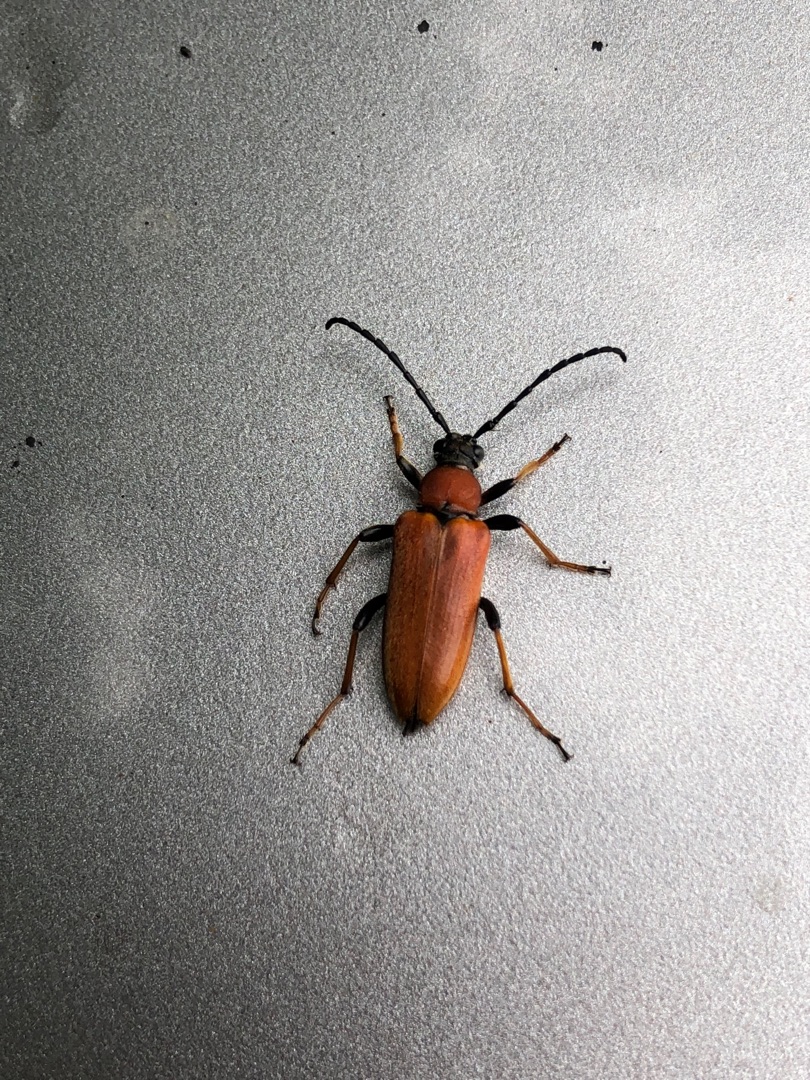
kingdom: Animalia
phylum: Arthropoda
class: Insecta
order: Coleoptera
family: Cerambycidae
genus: Stictoleptura
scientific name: Stictoleptura rubra
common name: Rød blomsterbuk
